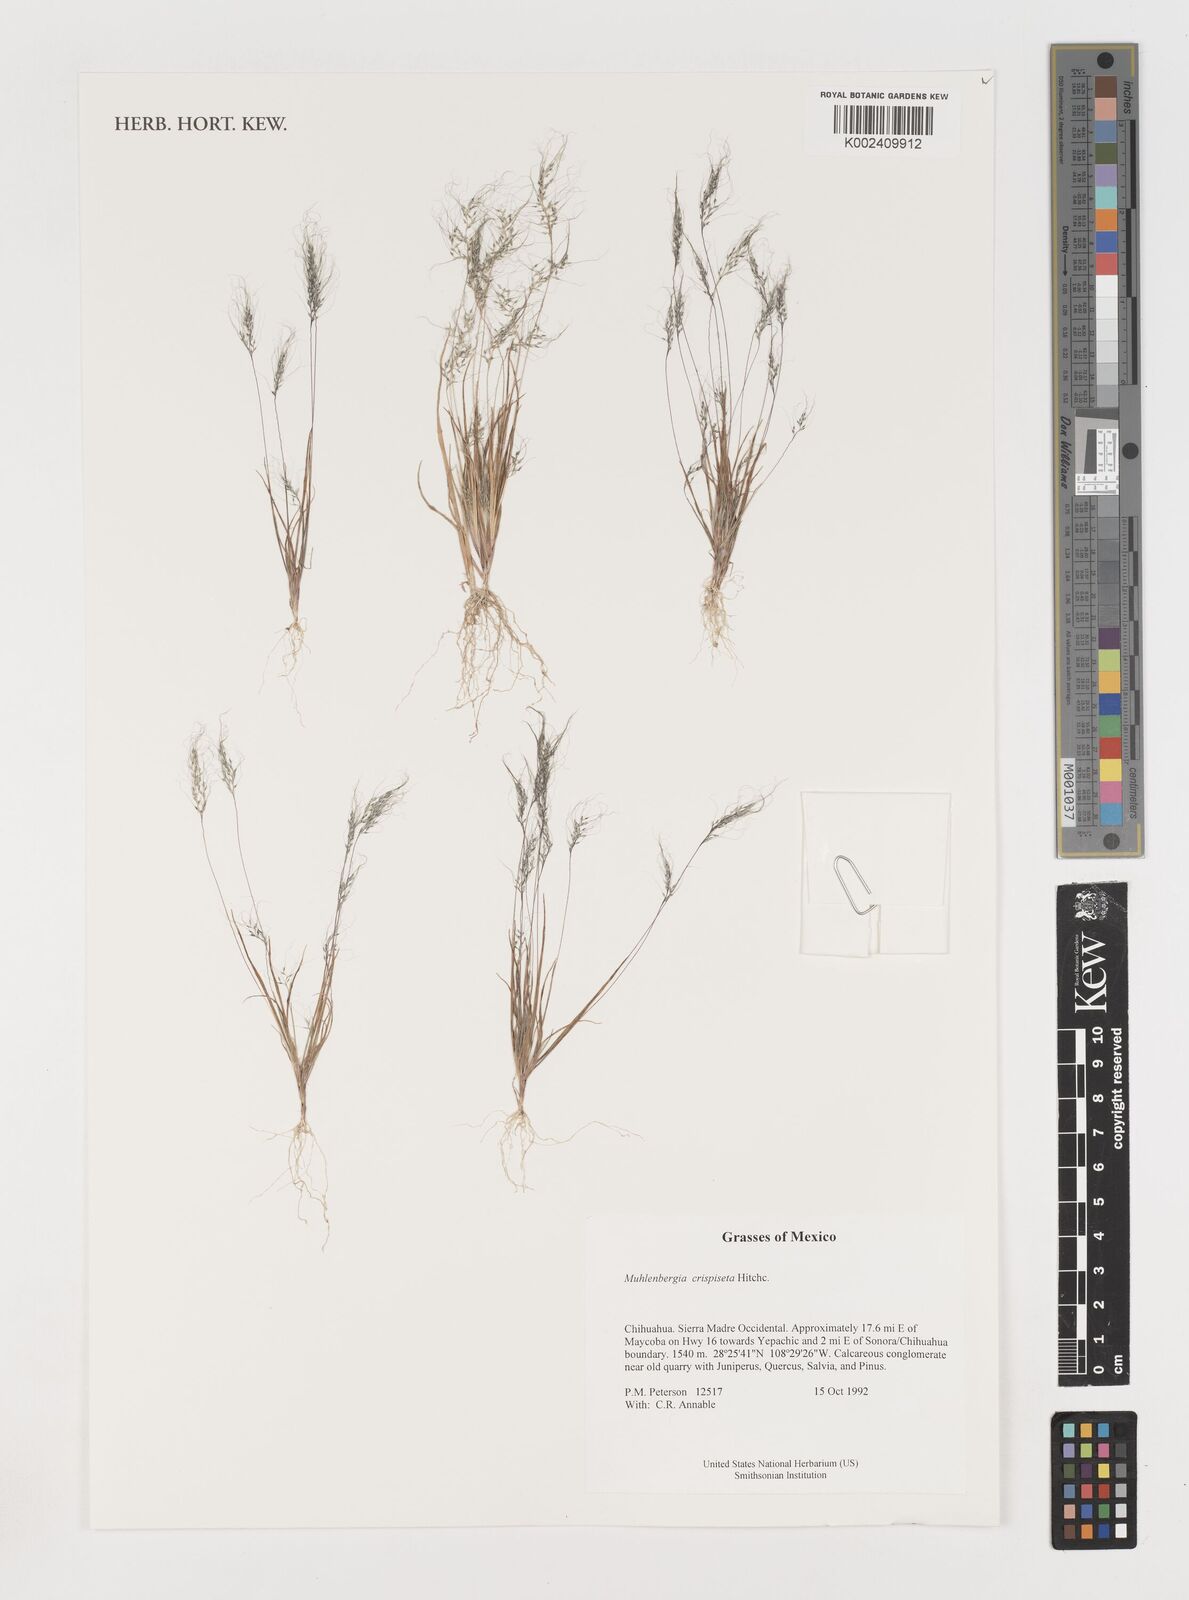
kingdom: Plantae
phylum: Tracheophyta
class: Liliopsida
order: Poales
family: Poaceae
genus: Muhlenbergia
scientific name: Muhlenbergia crispiseta
